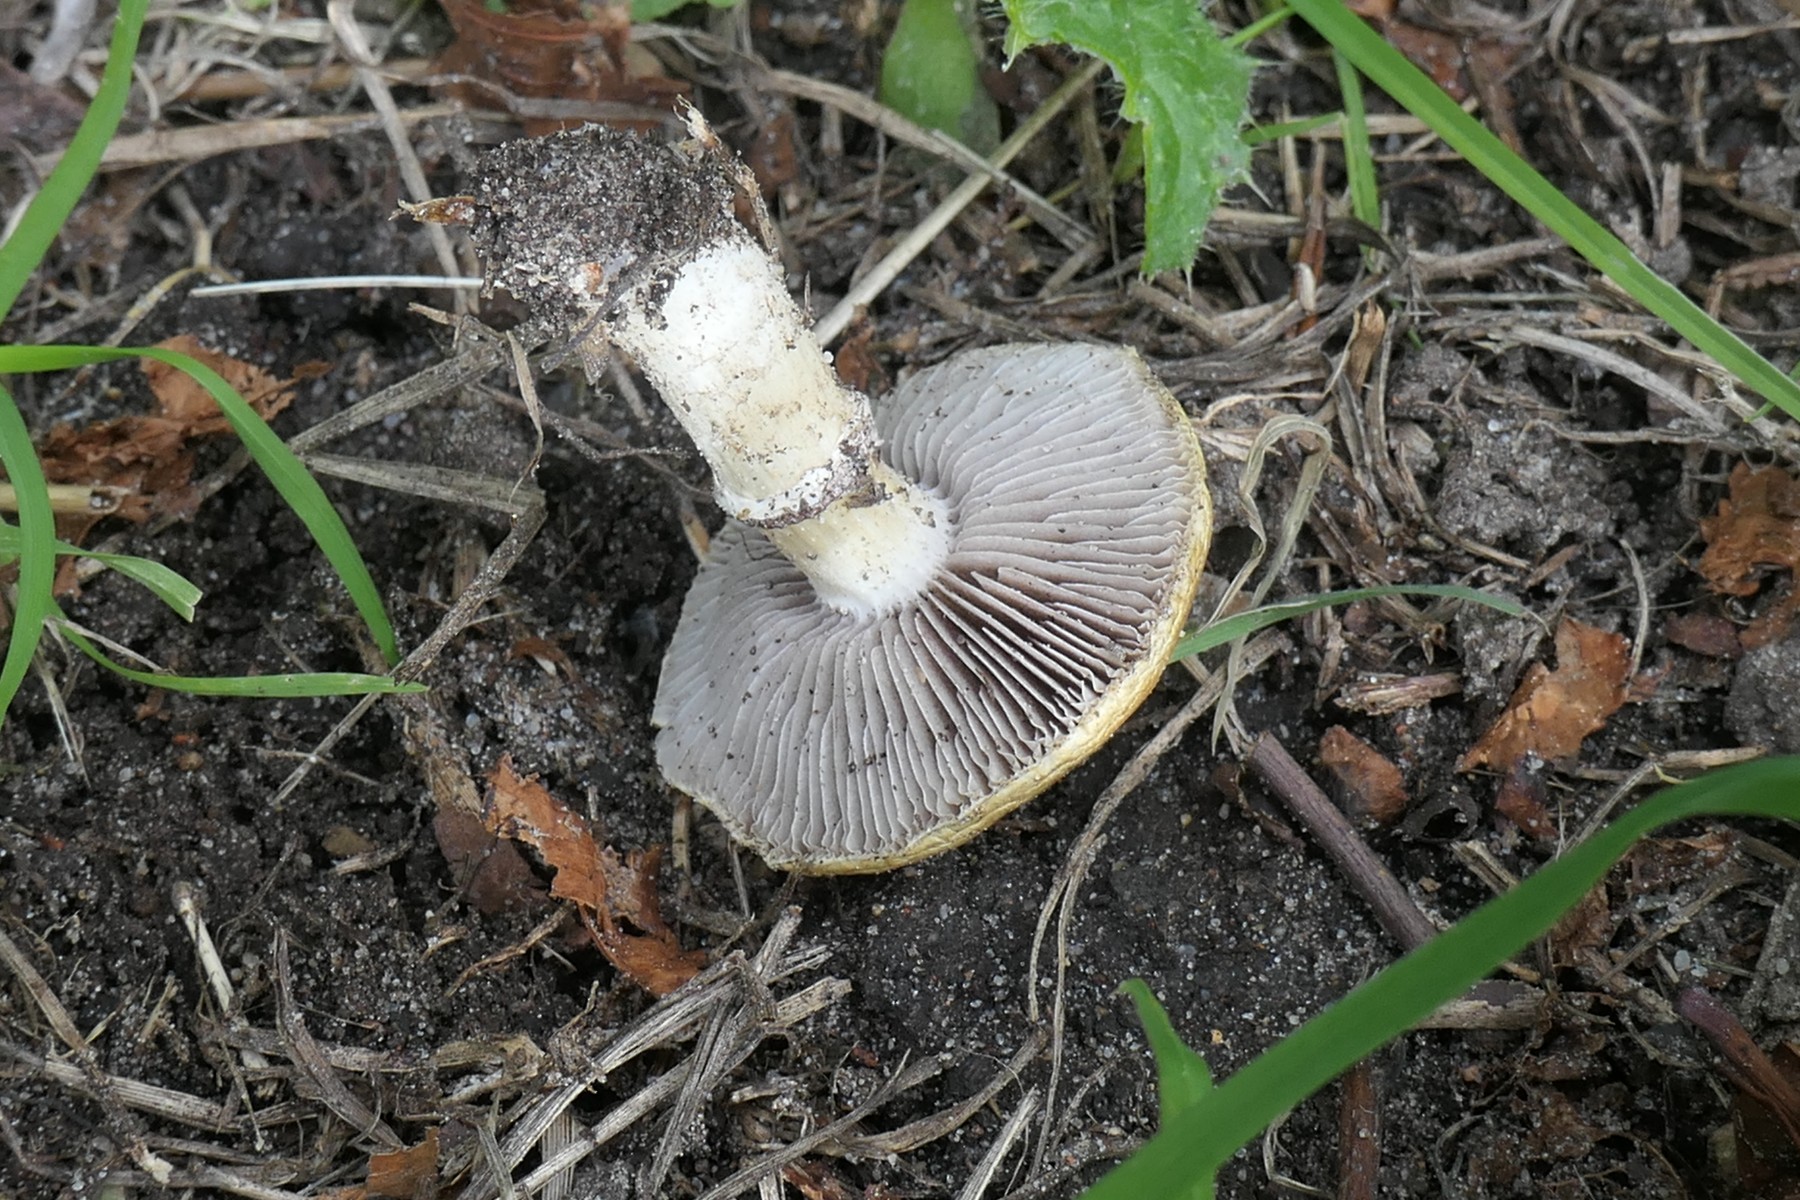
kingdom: Fungi
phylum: Basidiomycota
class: Agaricomycetes
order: Agaricales
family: Hymenogastraceae
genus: Psilocybe
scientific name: Psilocybe coronilla
